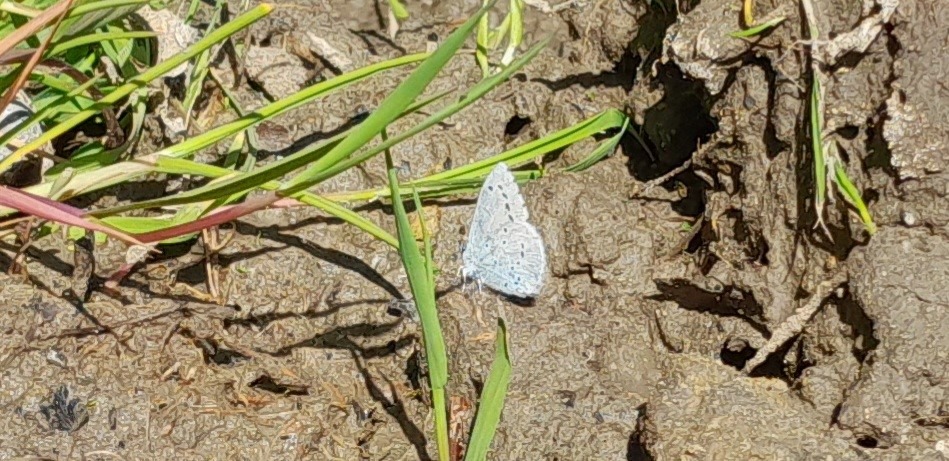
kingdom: Animalia
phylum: Arthropoda
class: Insecta
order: Lepidoptera
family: Lycaenidae
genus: Celastrina
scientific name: Celastrina argiolus
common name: Skovblåfugl
